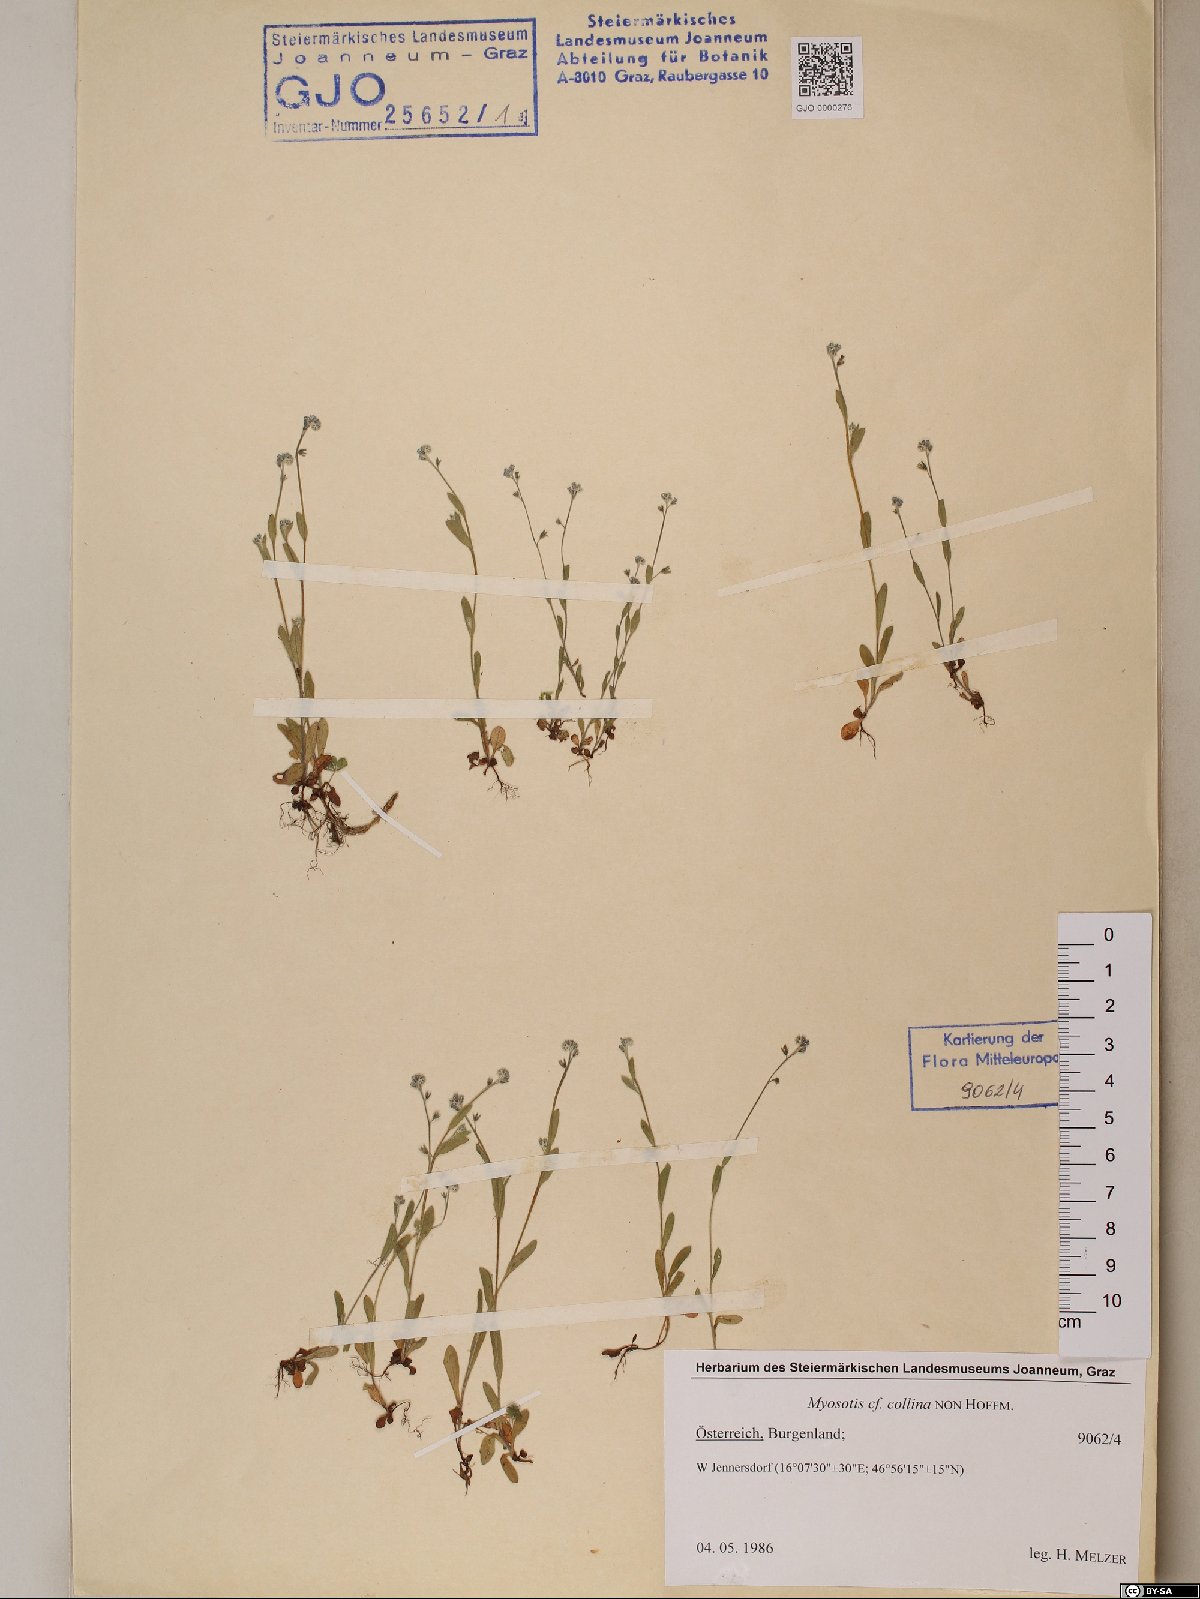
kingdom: Plantae
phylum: Tracheophyta
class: Magnoliopsida
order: Boraginales
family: Boraginaceae
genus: Myosotis
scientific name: Myosotis discolor
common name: Changing forget-me-not
